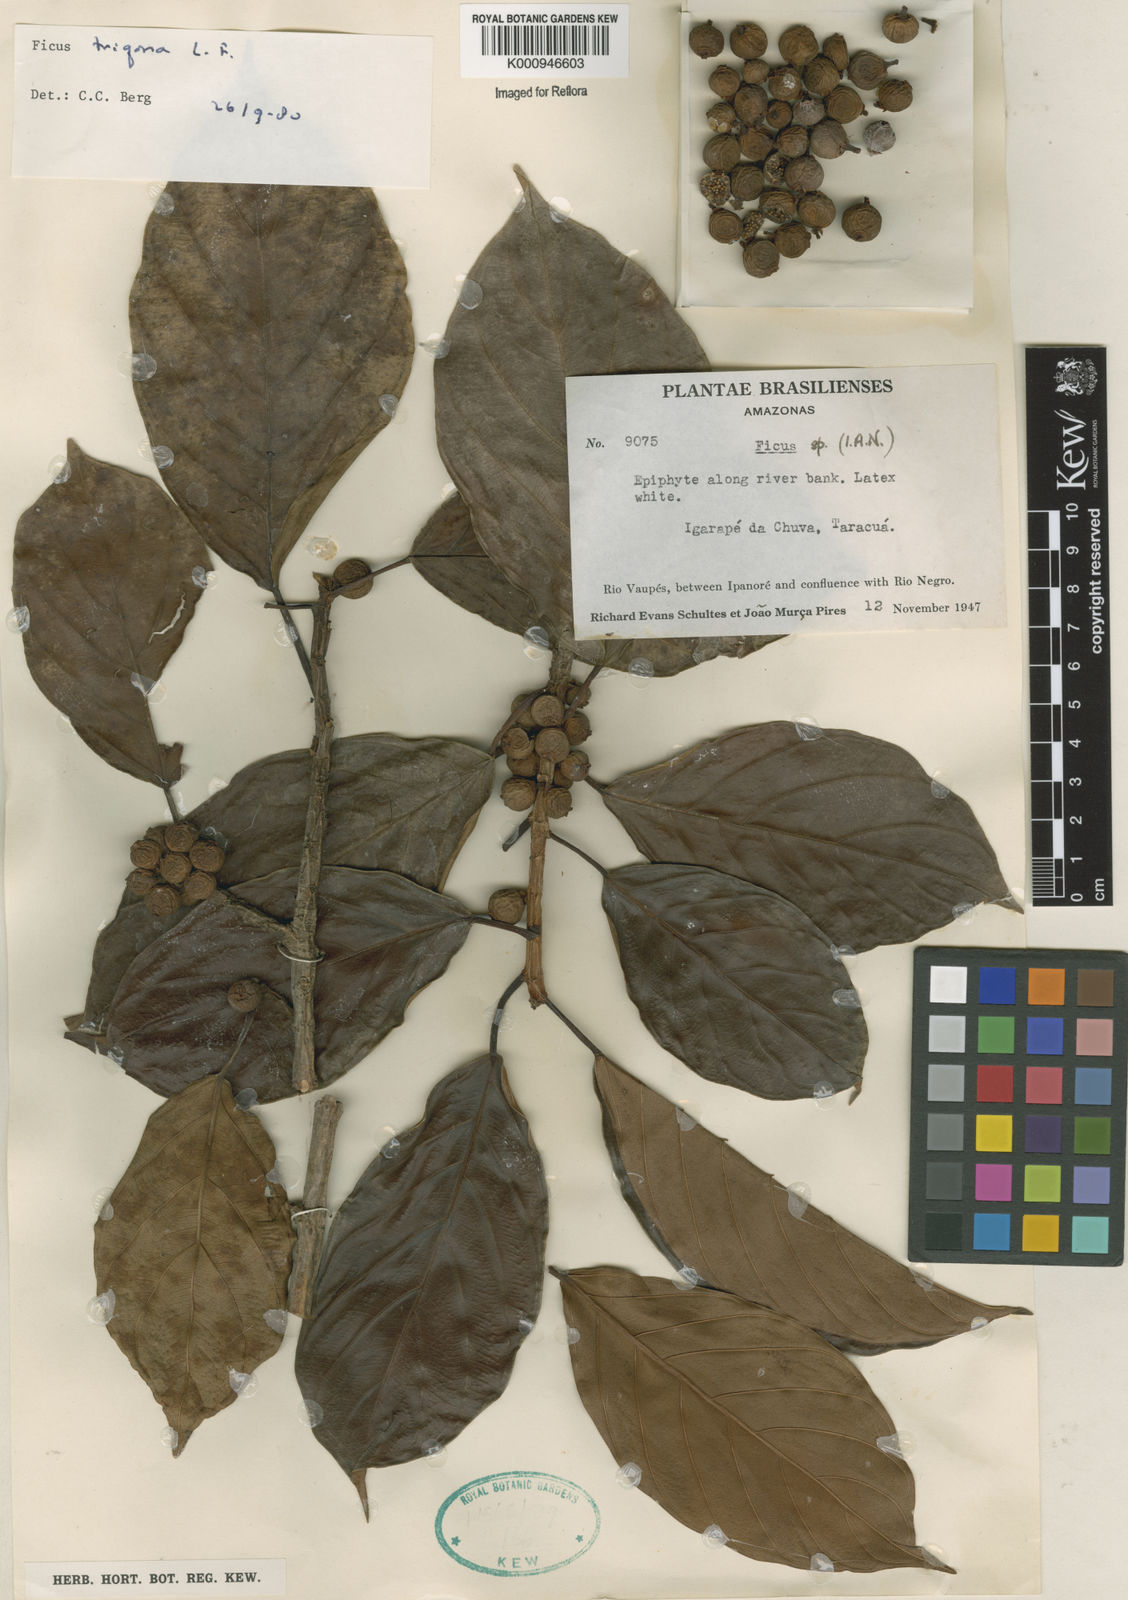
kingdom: Plantae
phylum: Tracheophyta
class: Magnoliopsida
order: Rosales
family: Moraceae
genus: Ficus
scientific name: Ficus trigona
